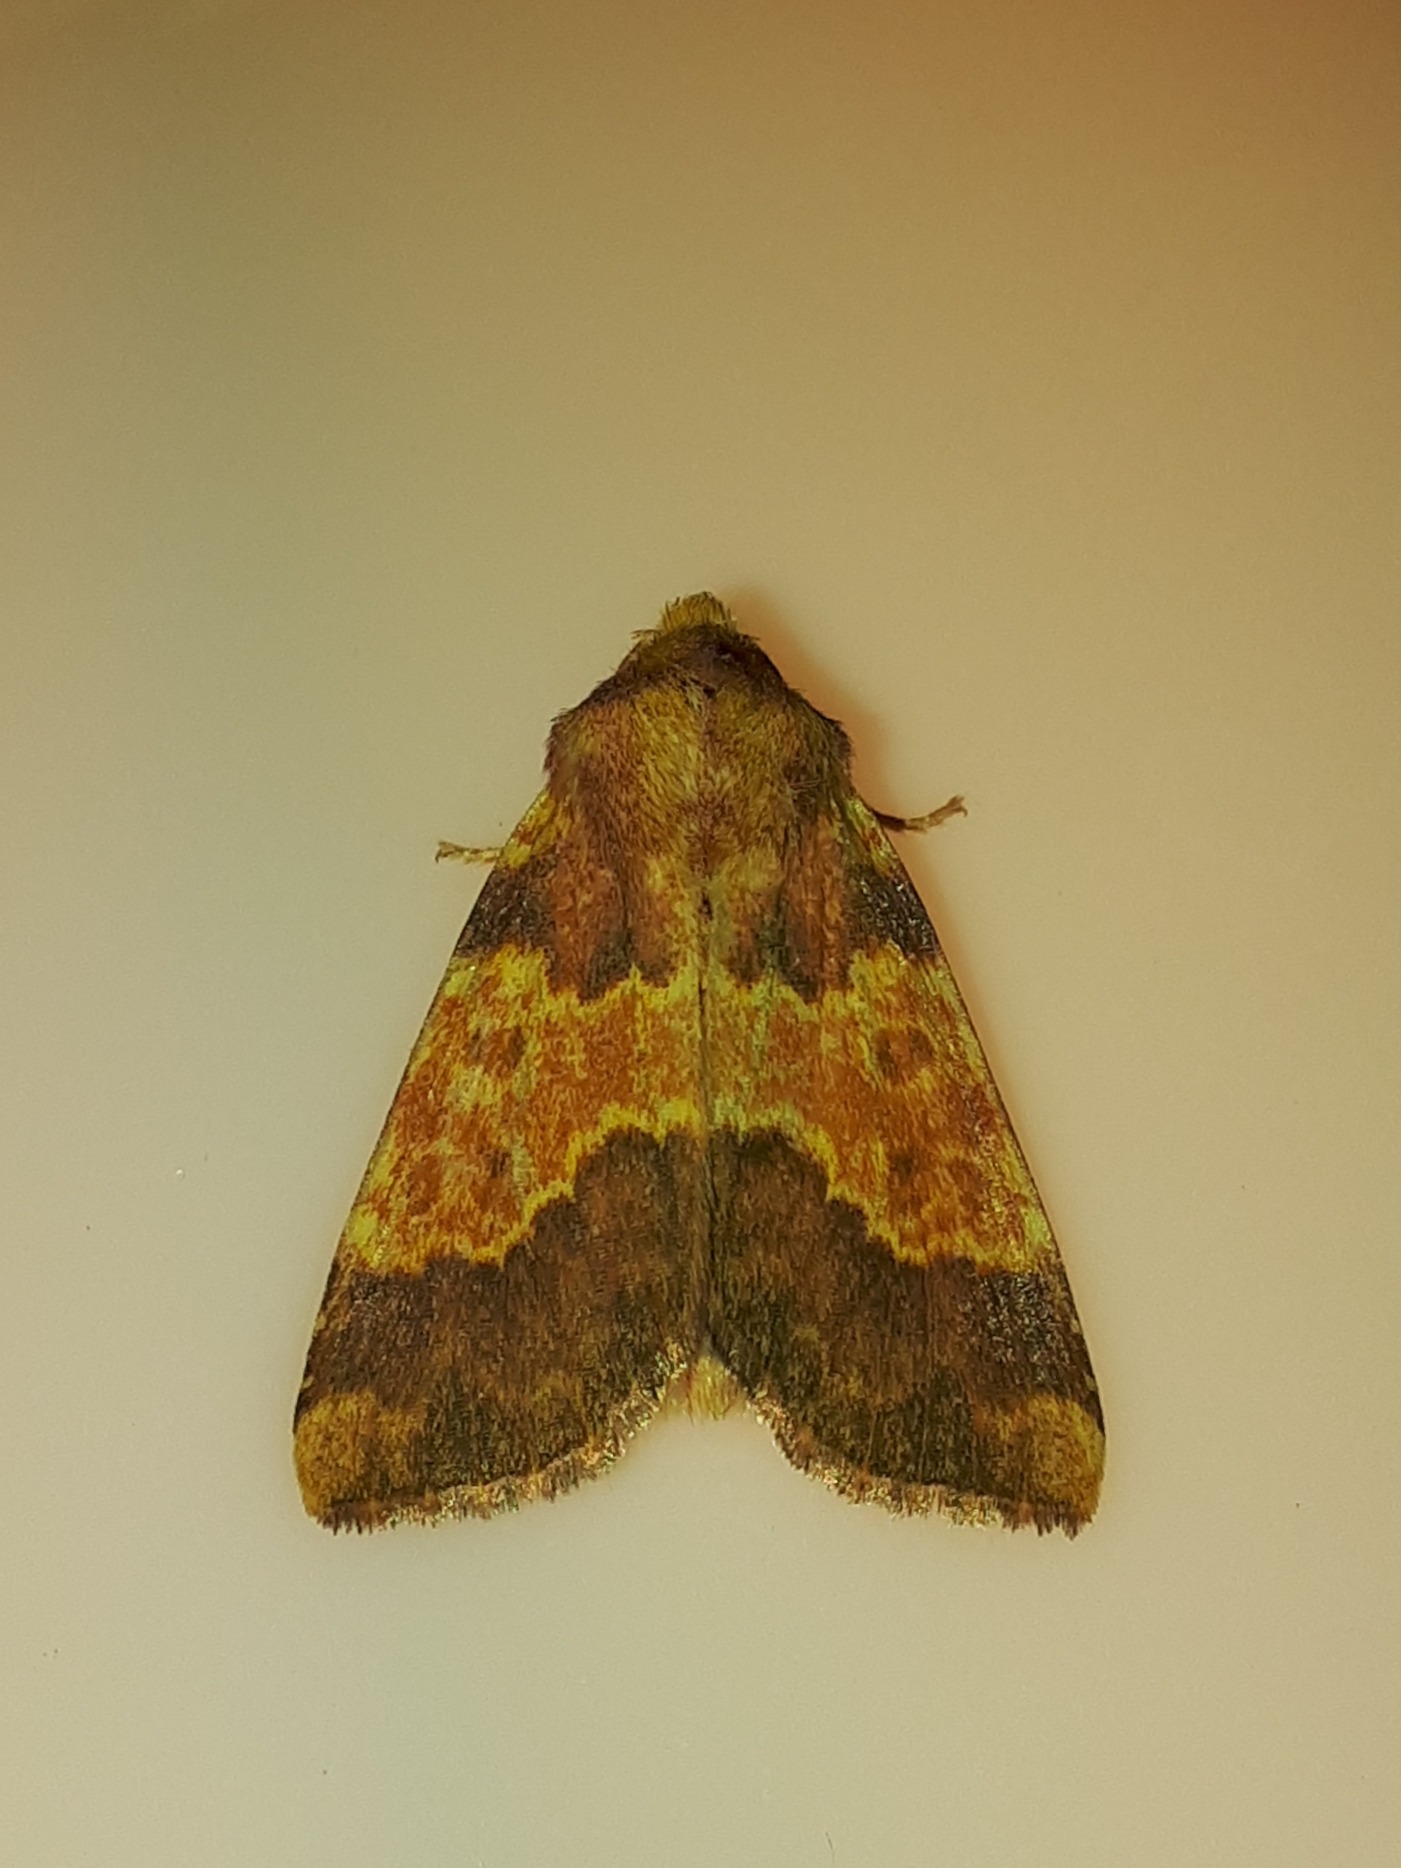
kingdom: Animalia
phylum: Arthropoda
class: Insecta
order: Lepidoptera
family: Noctuidae
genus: Tiliacea
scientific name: Tiliacea aurago
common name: Guldugle
